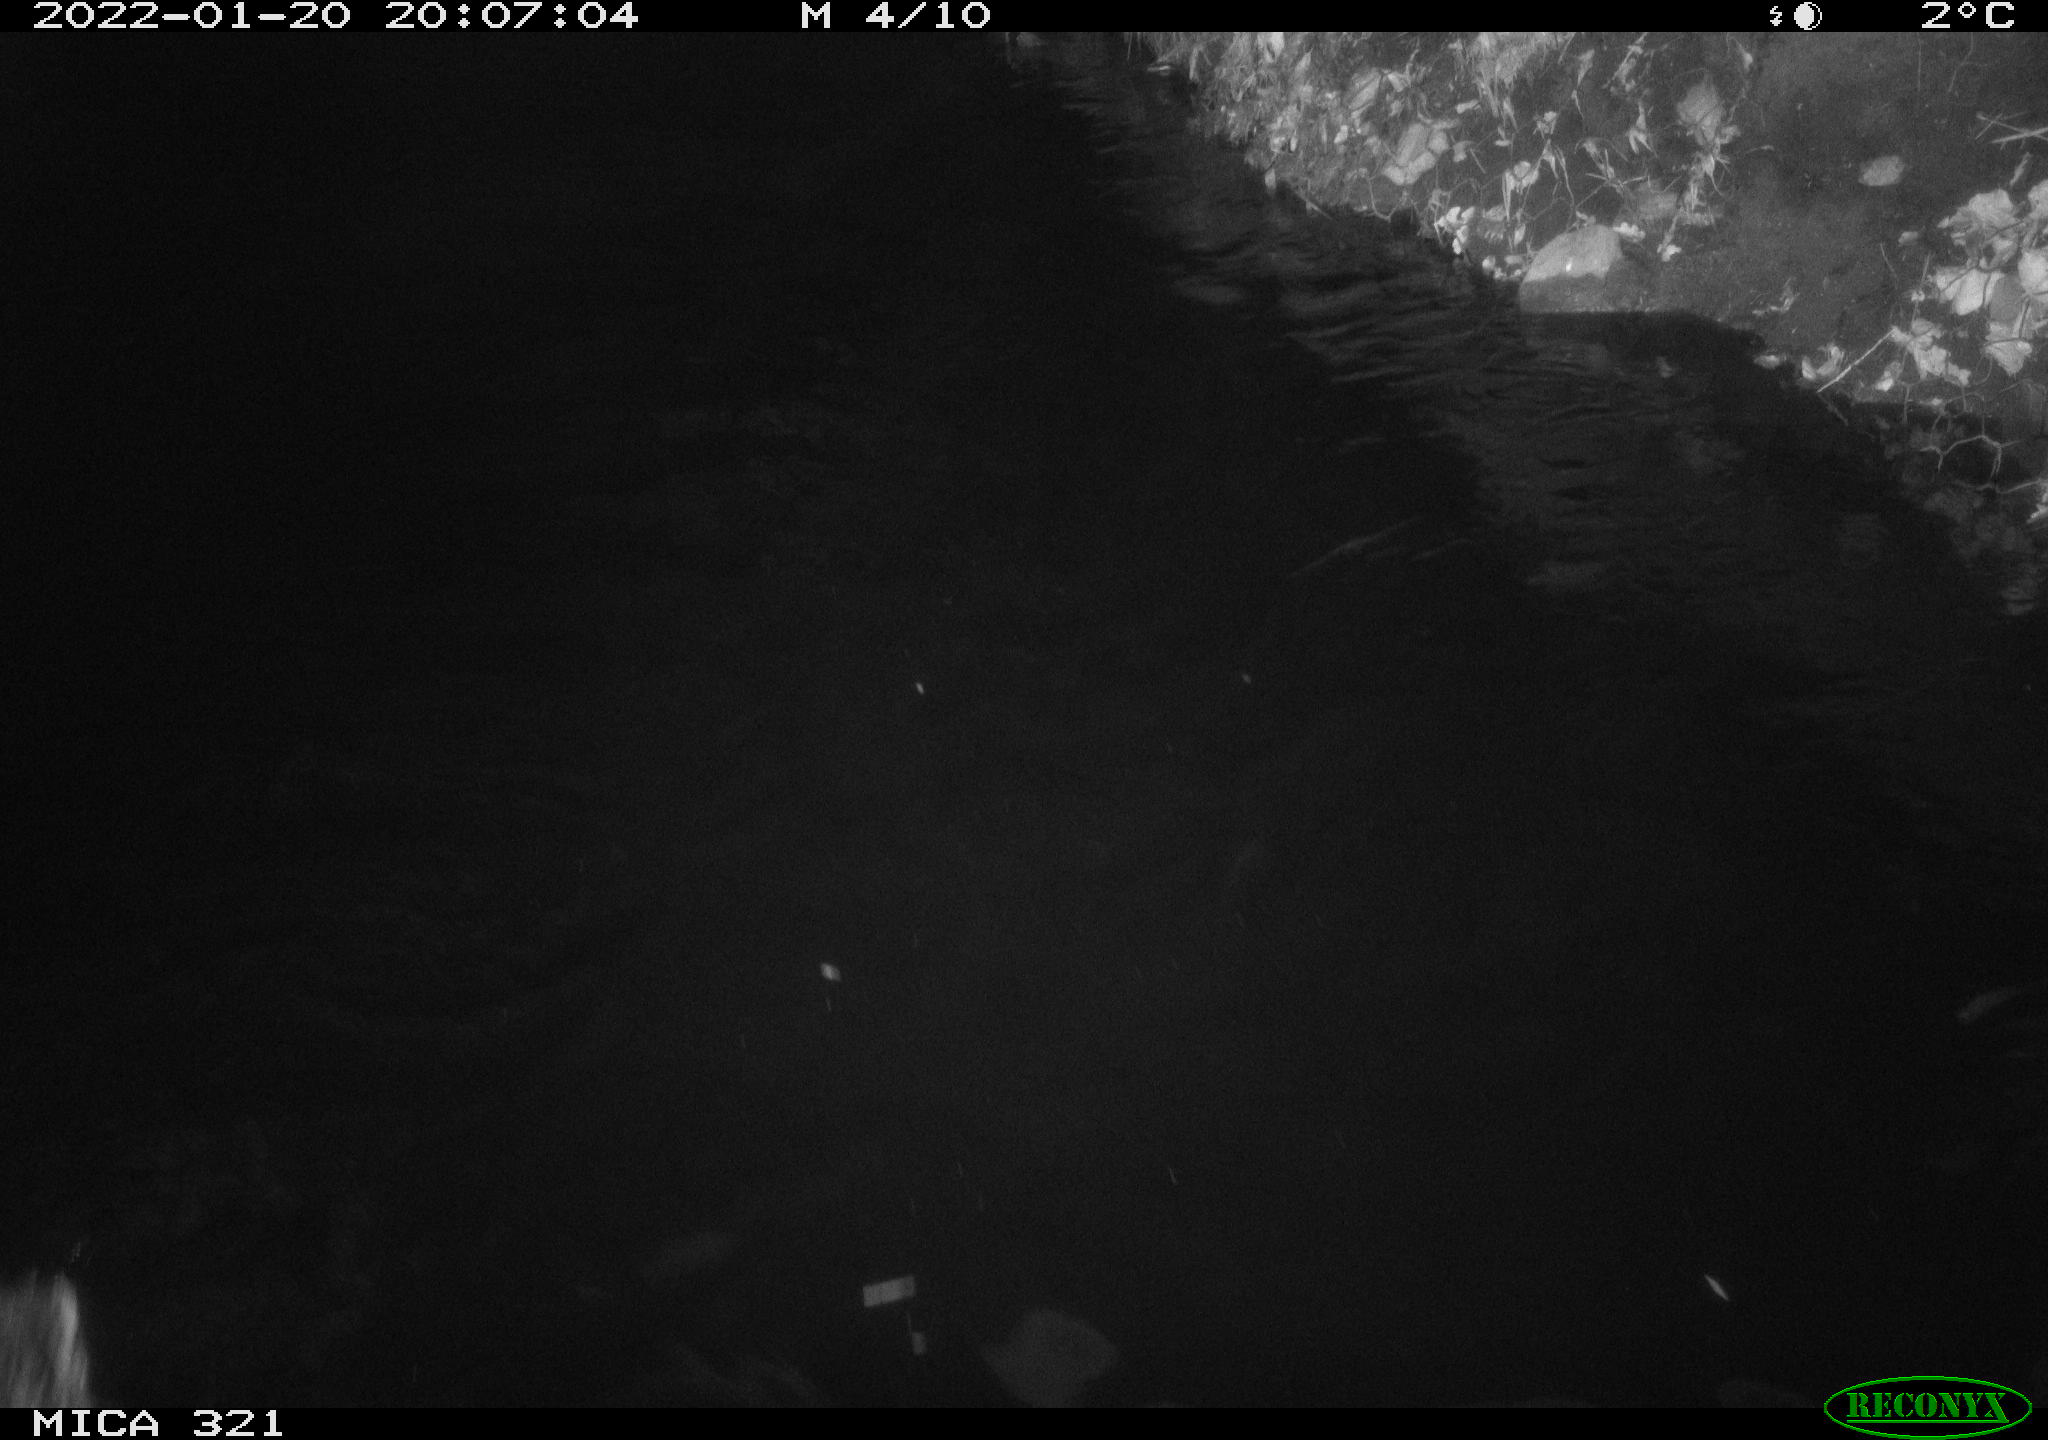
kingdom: Animalia
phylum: Chordata
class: Aves
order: Anseriformes
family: Anatidae
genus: Anas
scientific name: Anas
